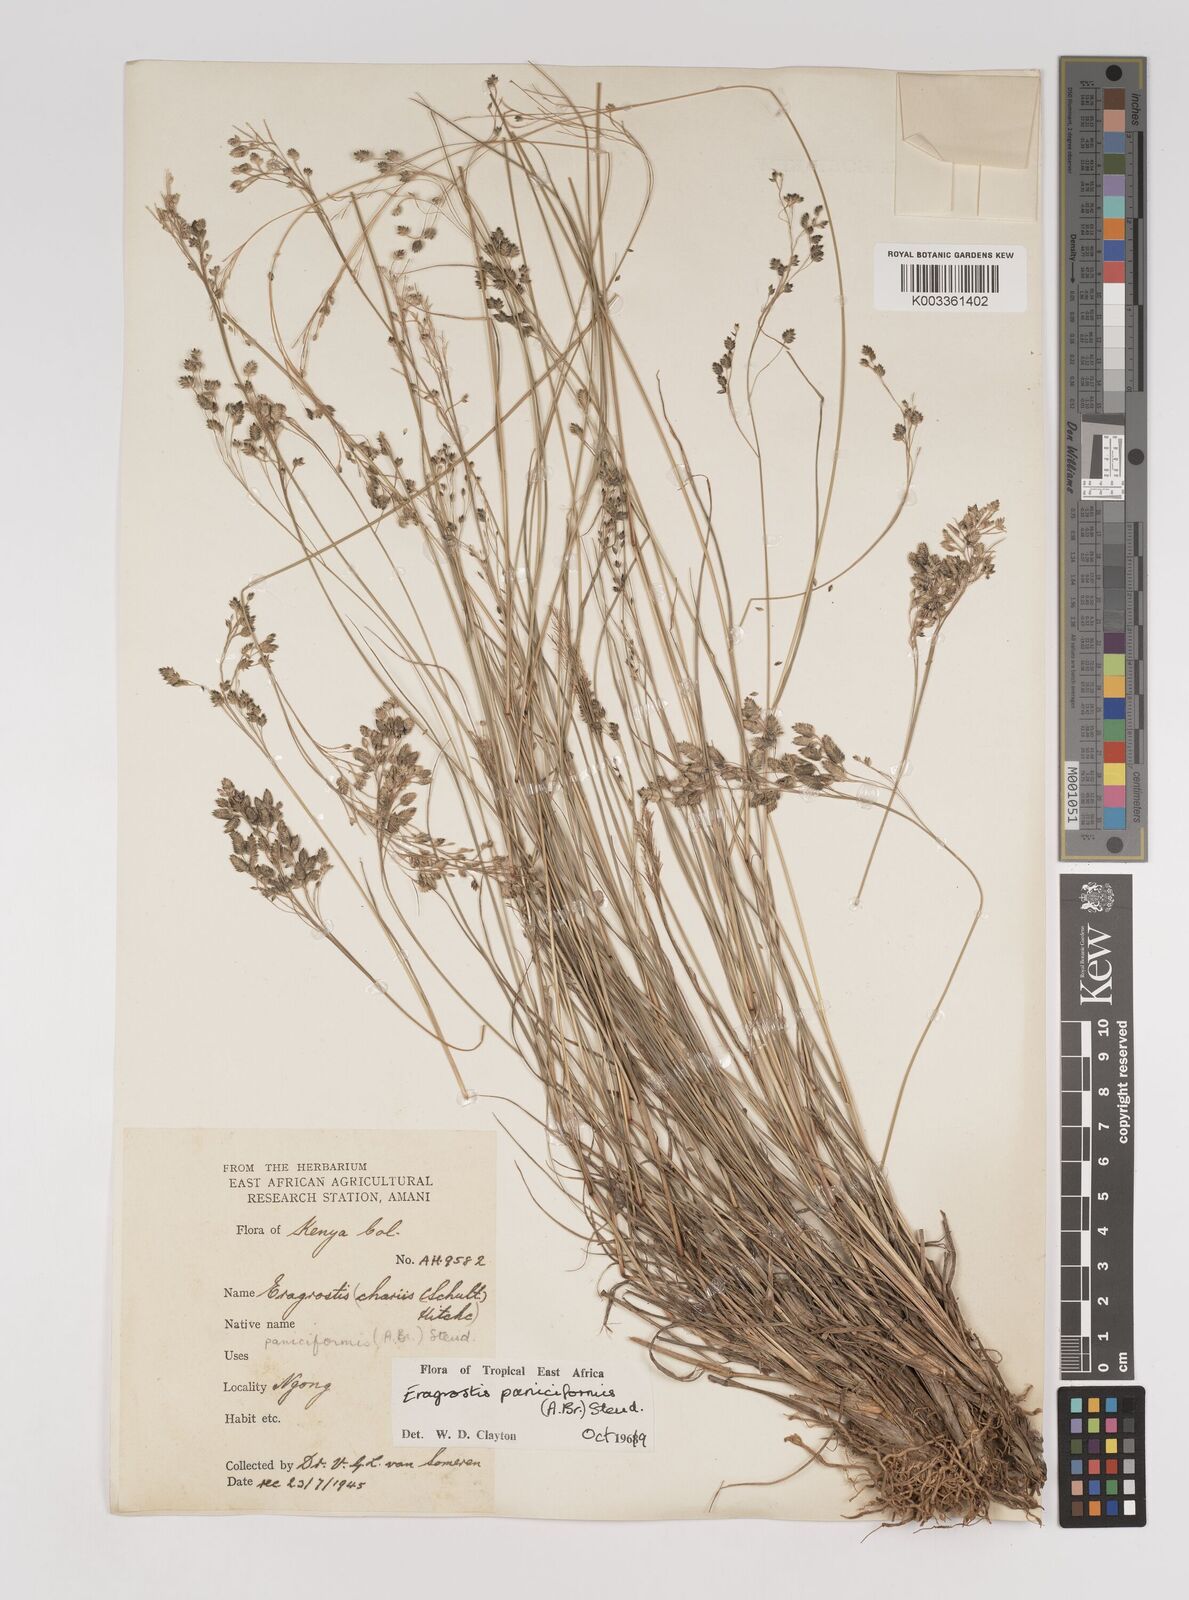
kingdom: Plantae
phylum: Tracheophyta
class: Liliopsida
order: Poales
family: Poaceae
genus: Eragrostis
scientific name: Eragrostis paniciformis
